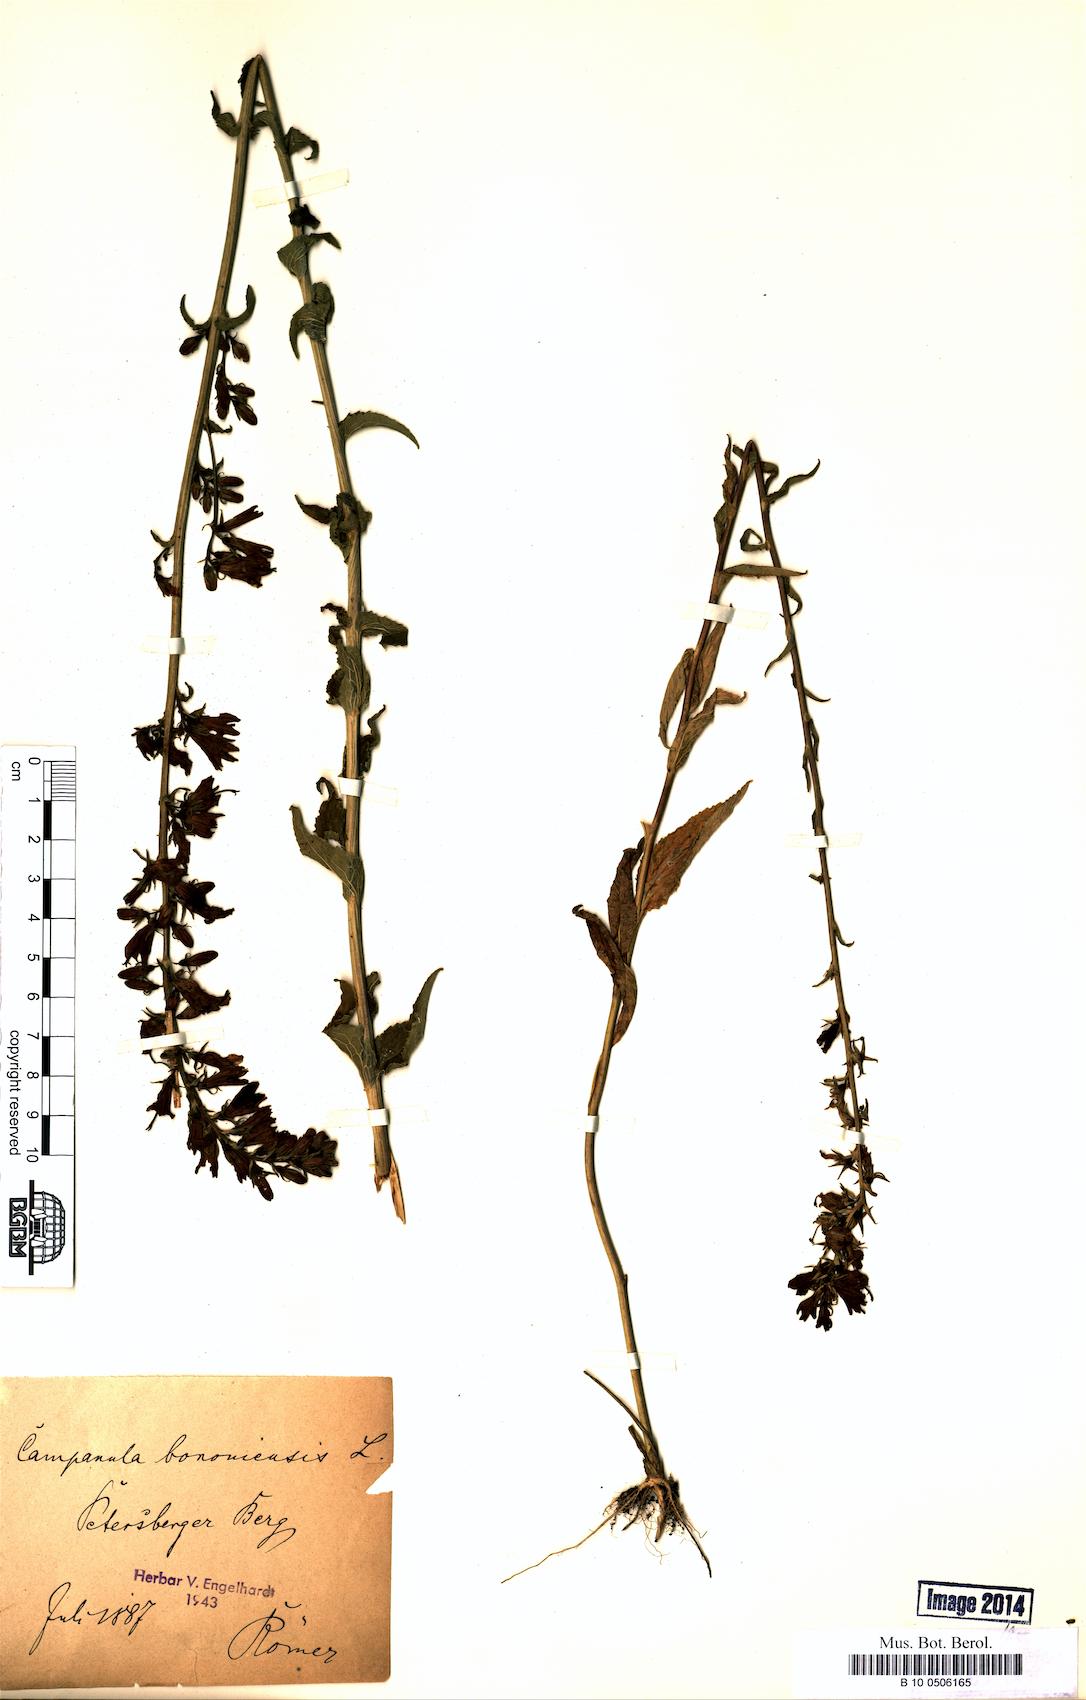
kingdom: Plantae
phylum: Tracheophyta
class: Magnoliopsida
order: Asterales
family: Campanulaceae
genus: Campanula
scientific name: Campanula bononiensis
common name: Pale bellflower
